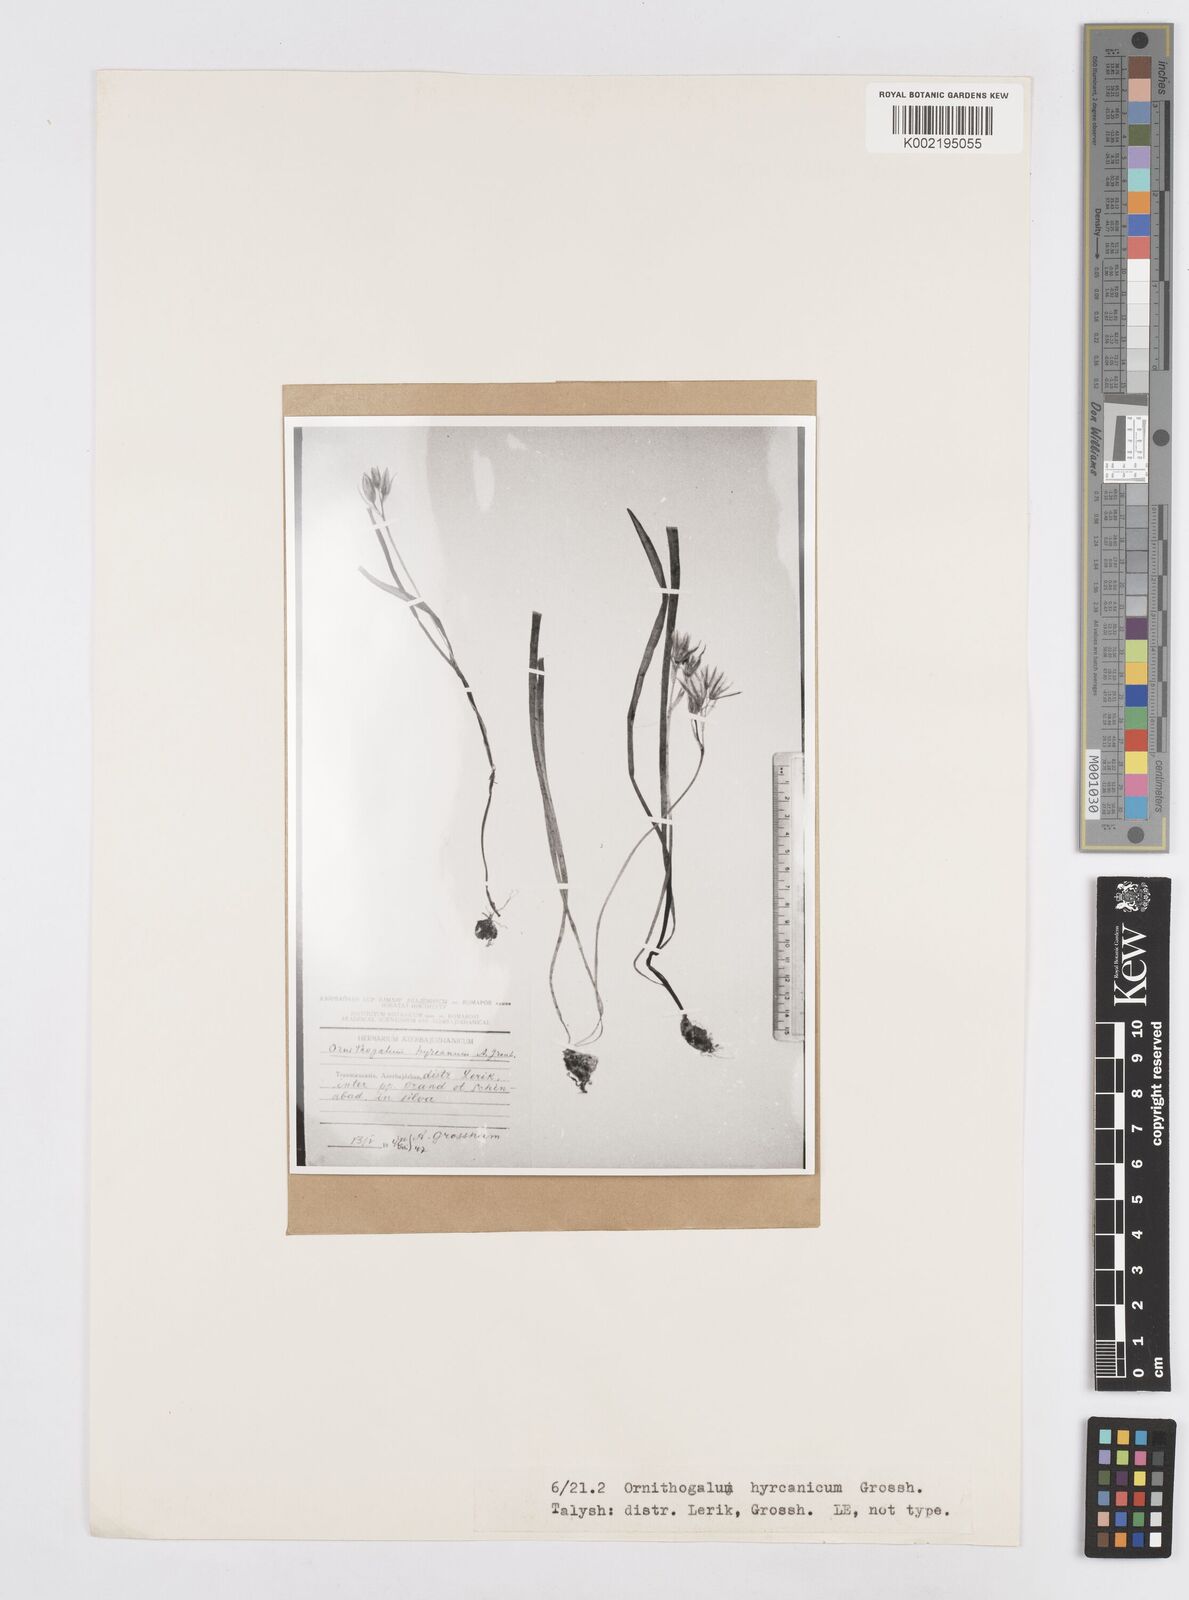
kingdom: Plantae
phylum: Tracheophyta
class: Liliopsida
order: Asparagales
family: Asparagaceae
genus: Ornithogalum
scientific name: Ornithogalum
